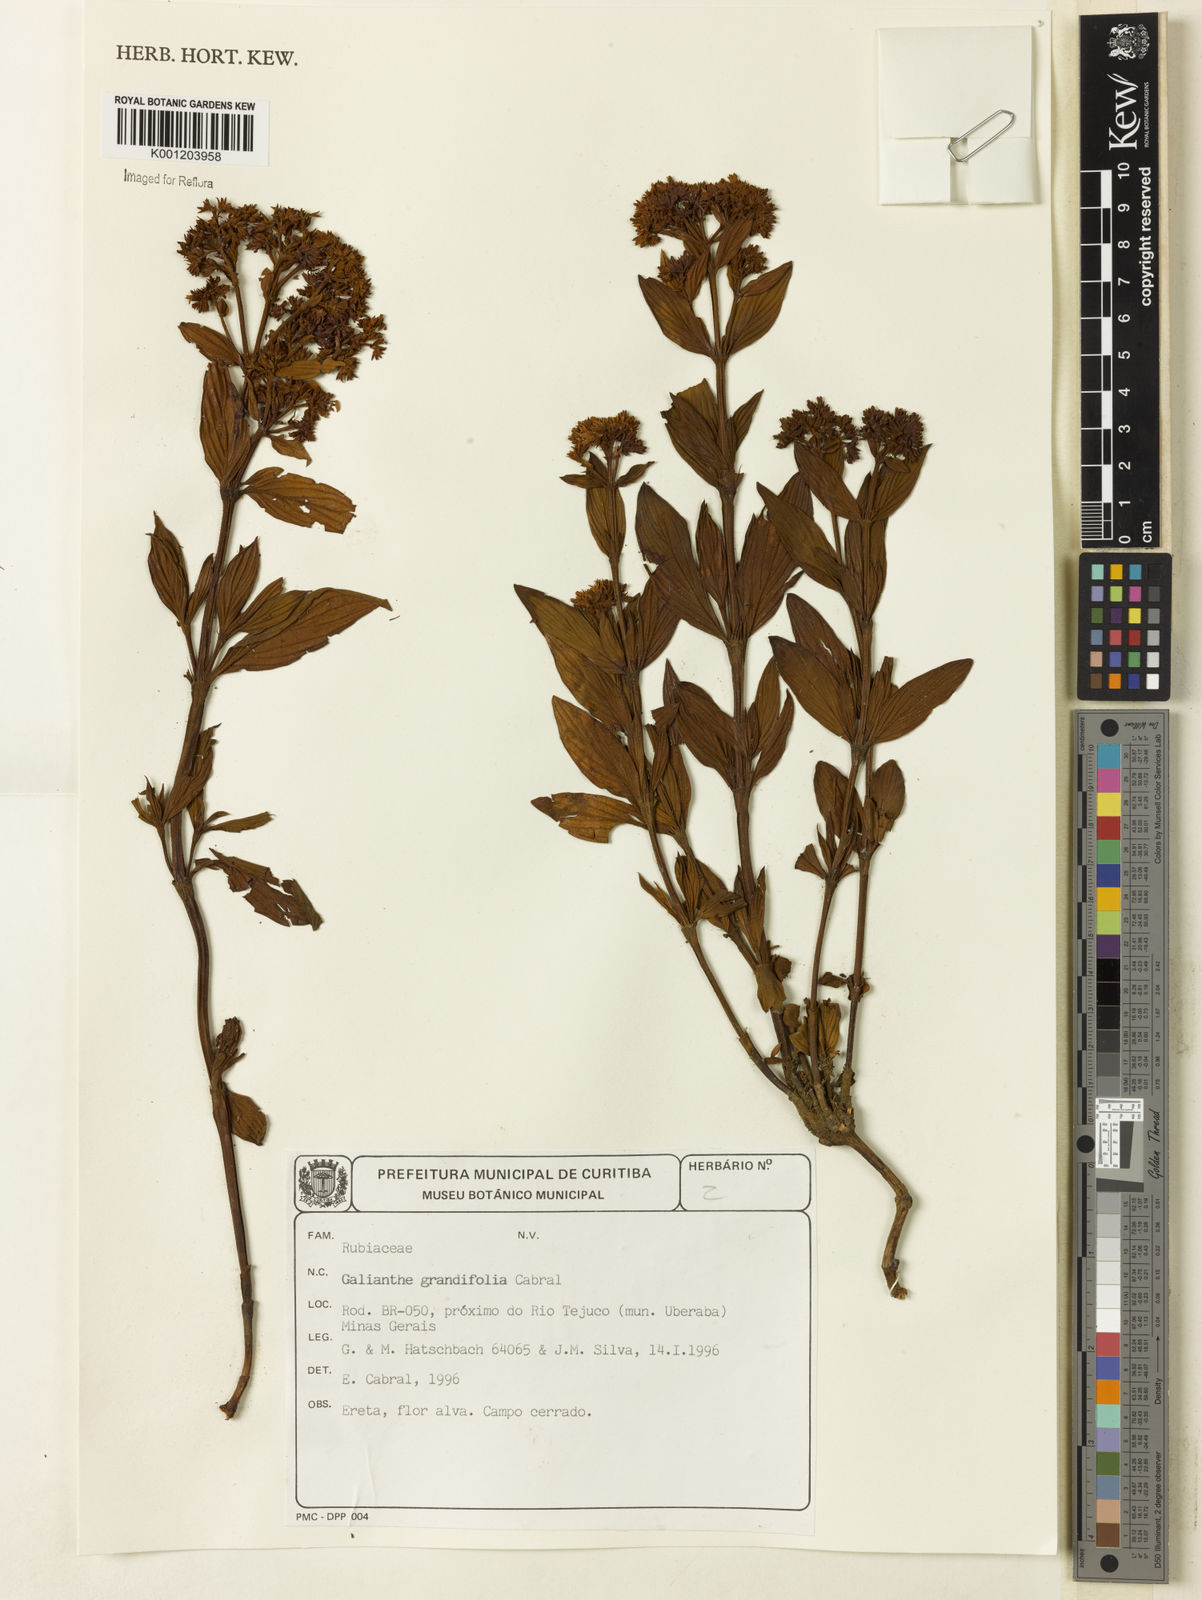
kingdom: Plantae
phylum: Tracheophyta
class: Magnoliopsida
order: Gentianales
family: Rubiaceae
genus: Galianthe
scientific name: Galianthe grandifolia
